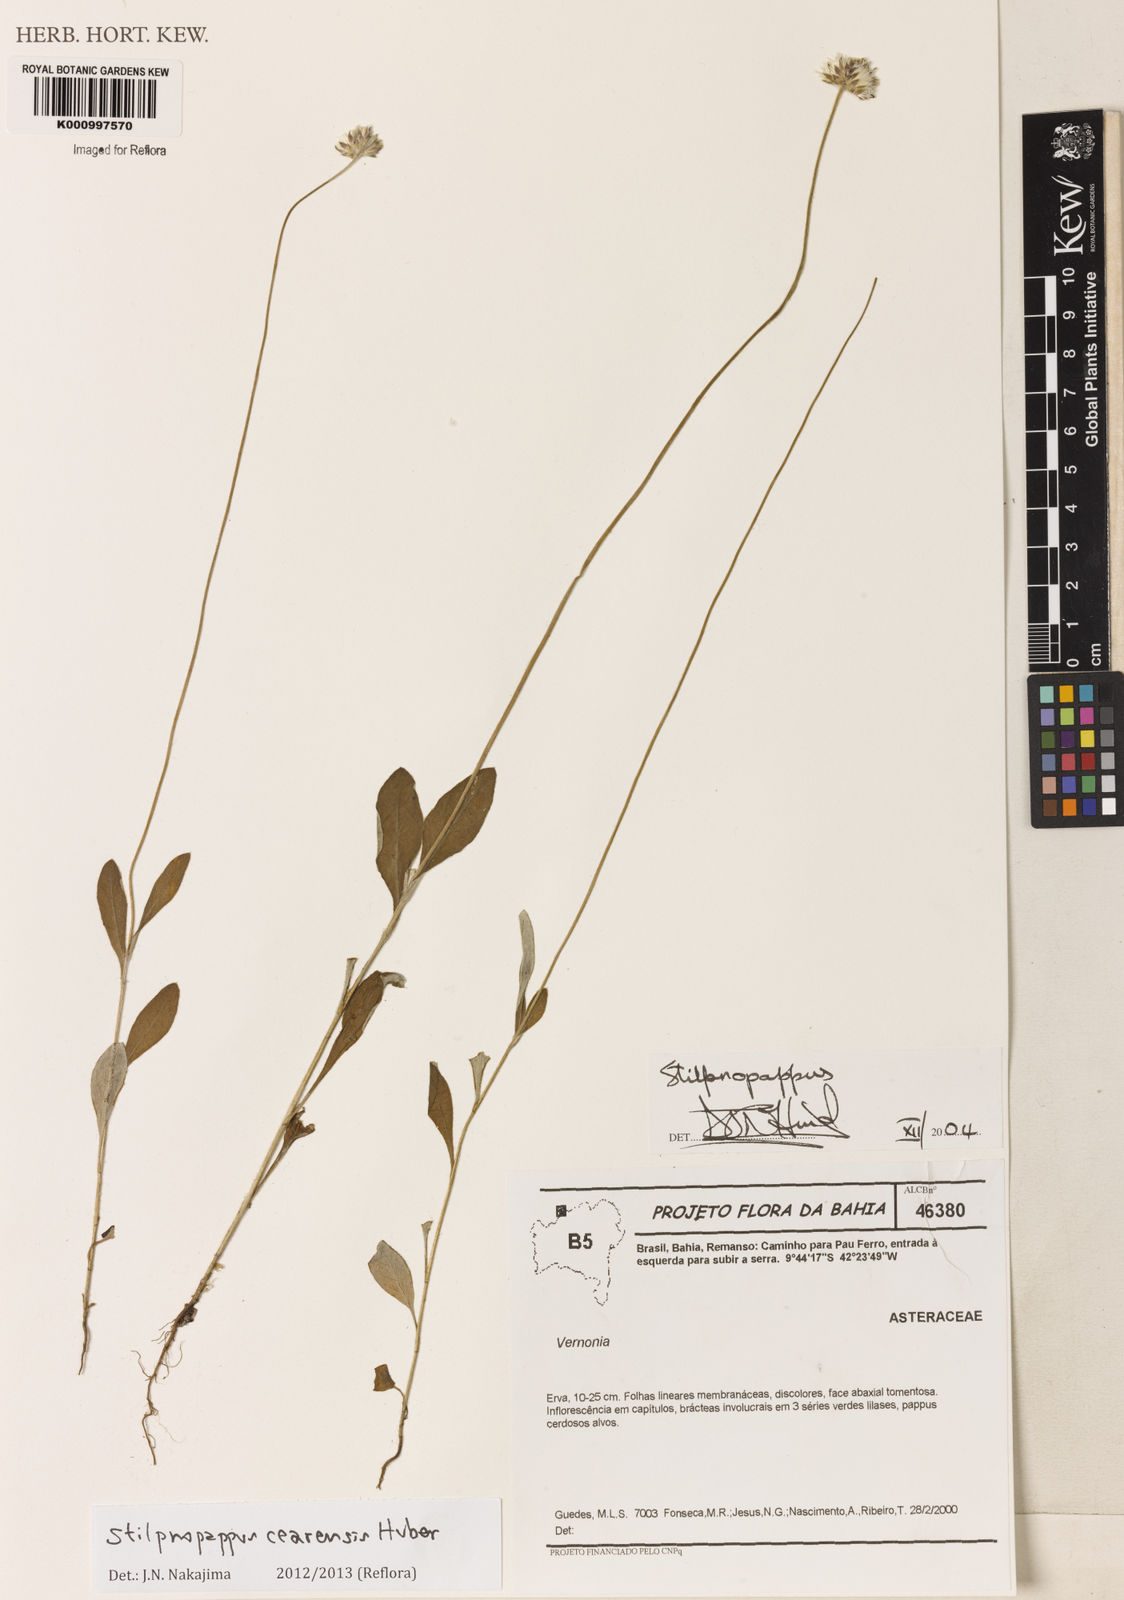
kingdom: Plantae
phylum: Tracheophyta
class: Magnoliopsida
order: Asterales
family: Asteraceae
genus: Stilpnopappus
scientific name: Stilpnopappus cearensis
